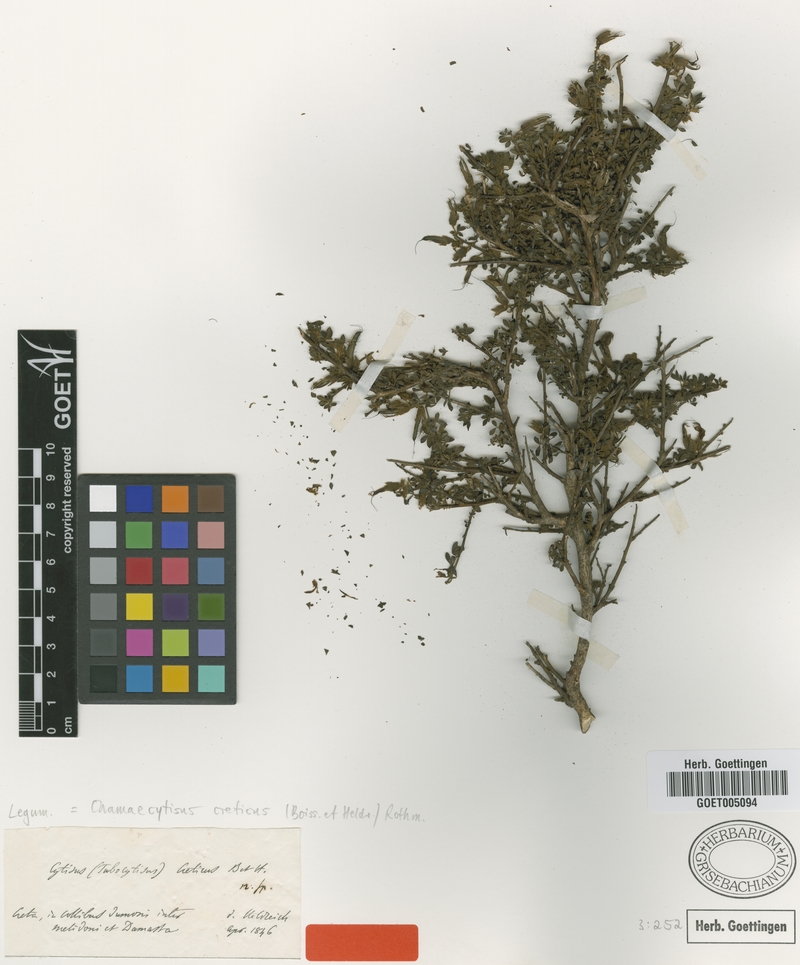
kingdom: Plantae
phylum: Tracheophyta
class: Magnoliopsida
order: Fabales
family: Fabaceae
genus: Chamaecytisus
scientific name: Chamaecytisus spinescens
